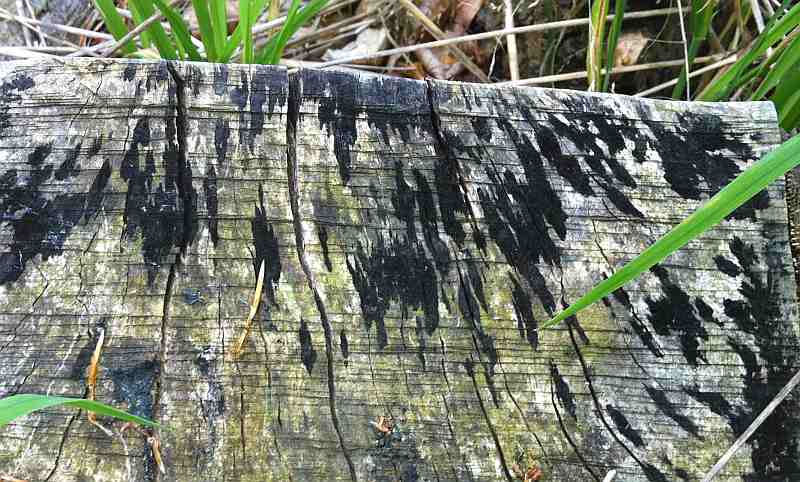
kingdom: Fungi
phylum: Ascomycota
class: Leotiomycetes
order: Helotiales
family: Helotiaceae
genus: Bispora
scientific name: Bispora pallescens
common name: måtte-snitskive
